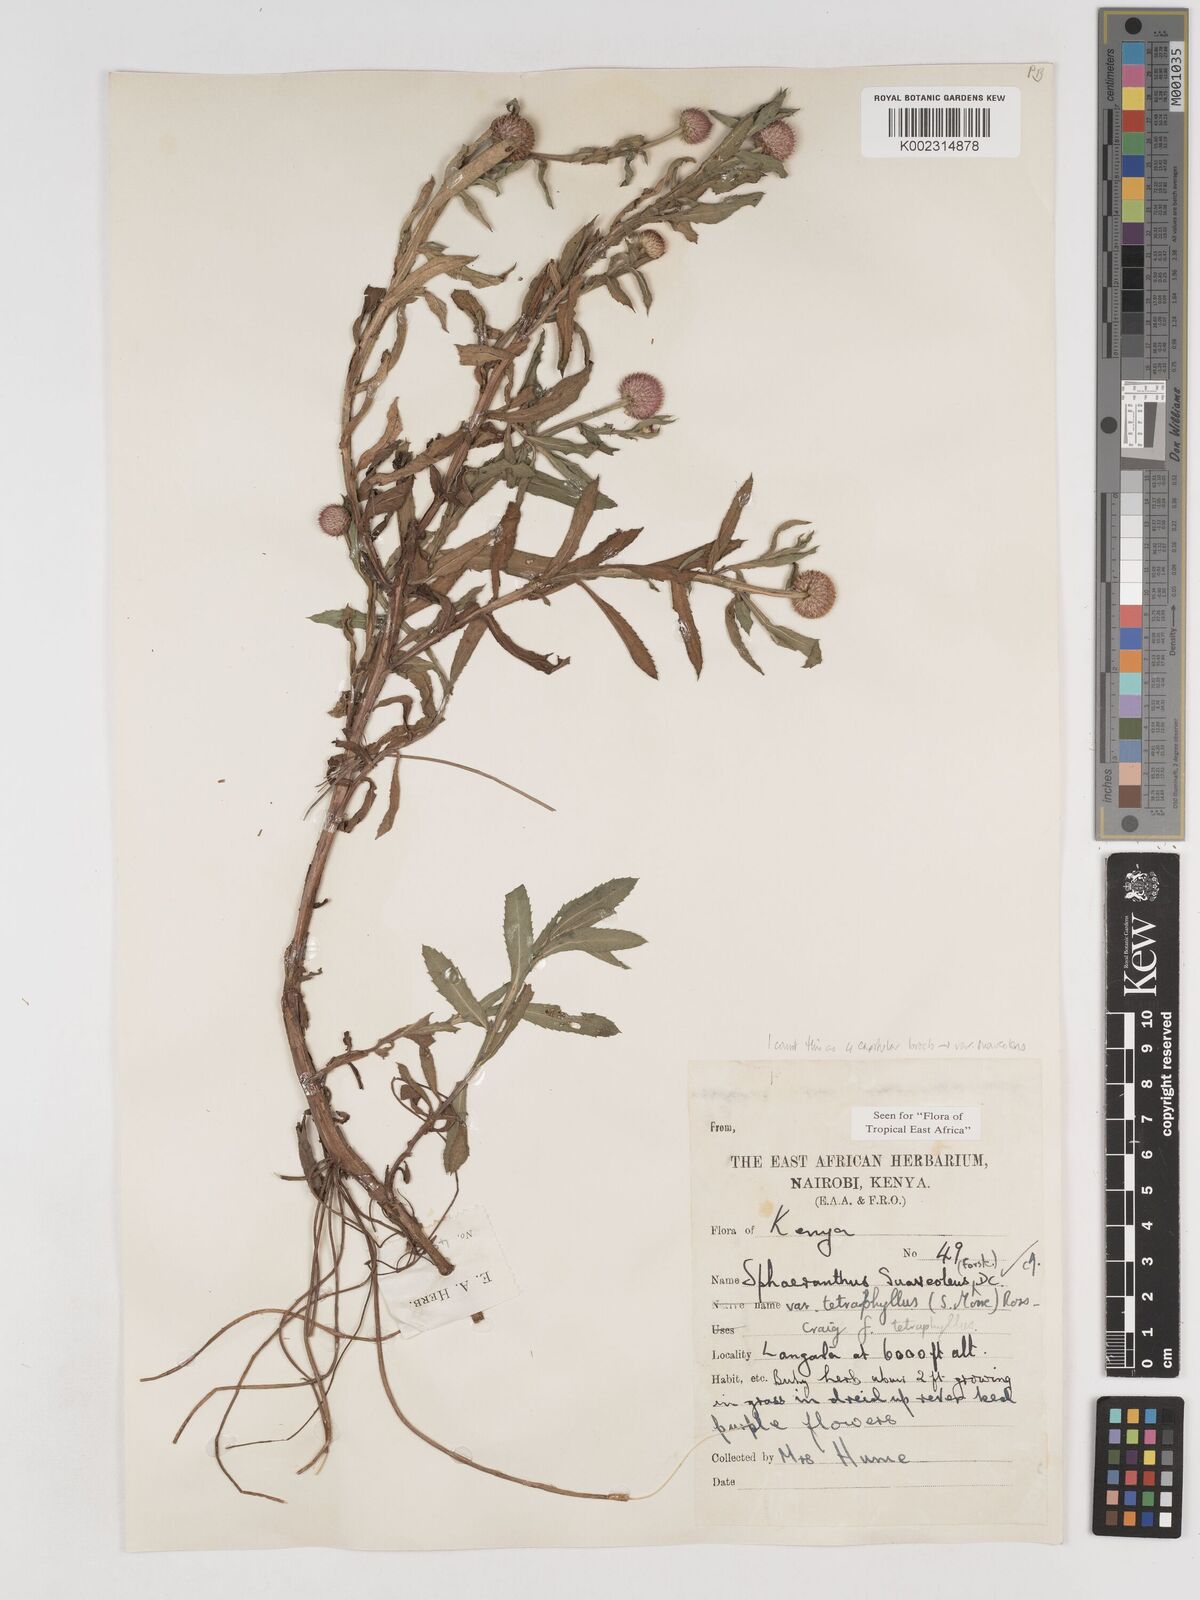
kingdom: Plantae
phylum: Tracheophyta
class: Magnoliopsida
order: Asterales
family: Asteraceae
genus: Sphaeranthus
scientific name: Sphaeranthus suaveolens
